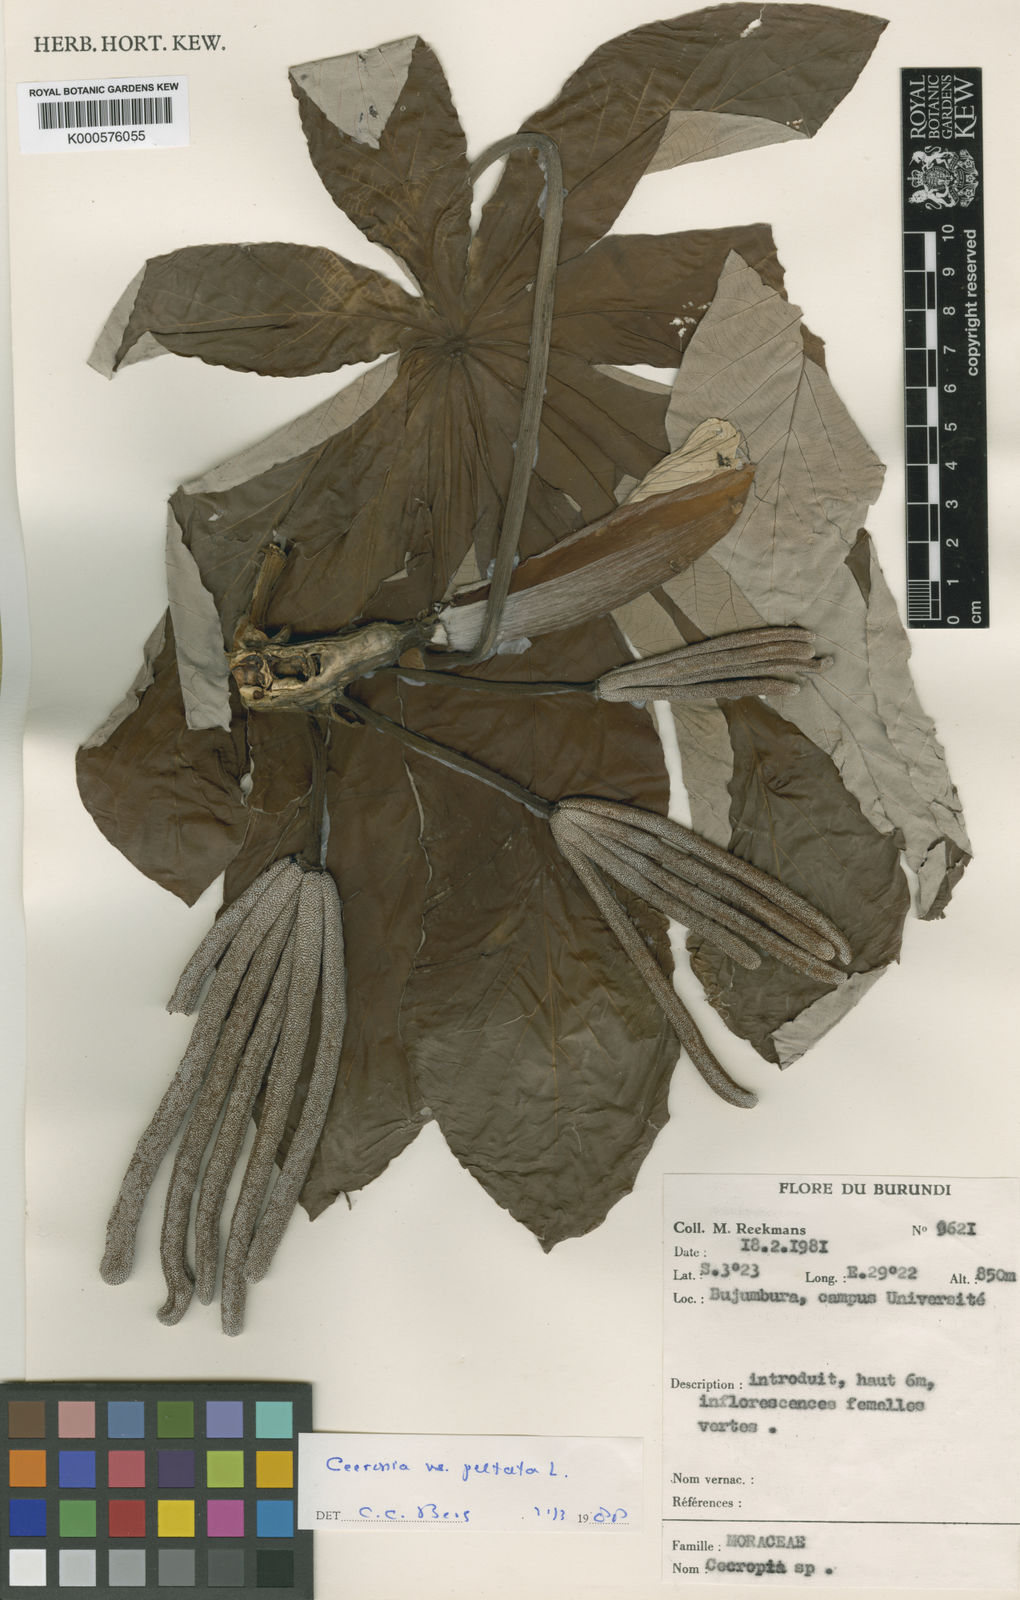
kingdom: Plantae
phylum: Tracheophyta
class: Magnoliopsida
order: Rosales
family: Urticaceae
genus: Cecropia
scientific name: Cecropia
